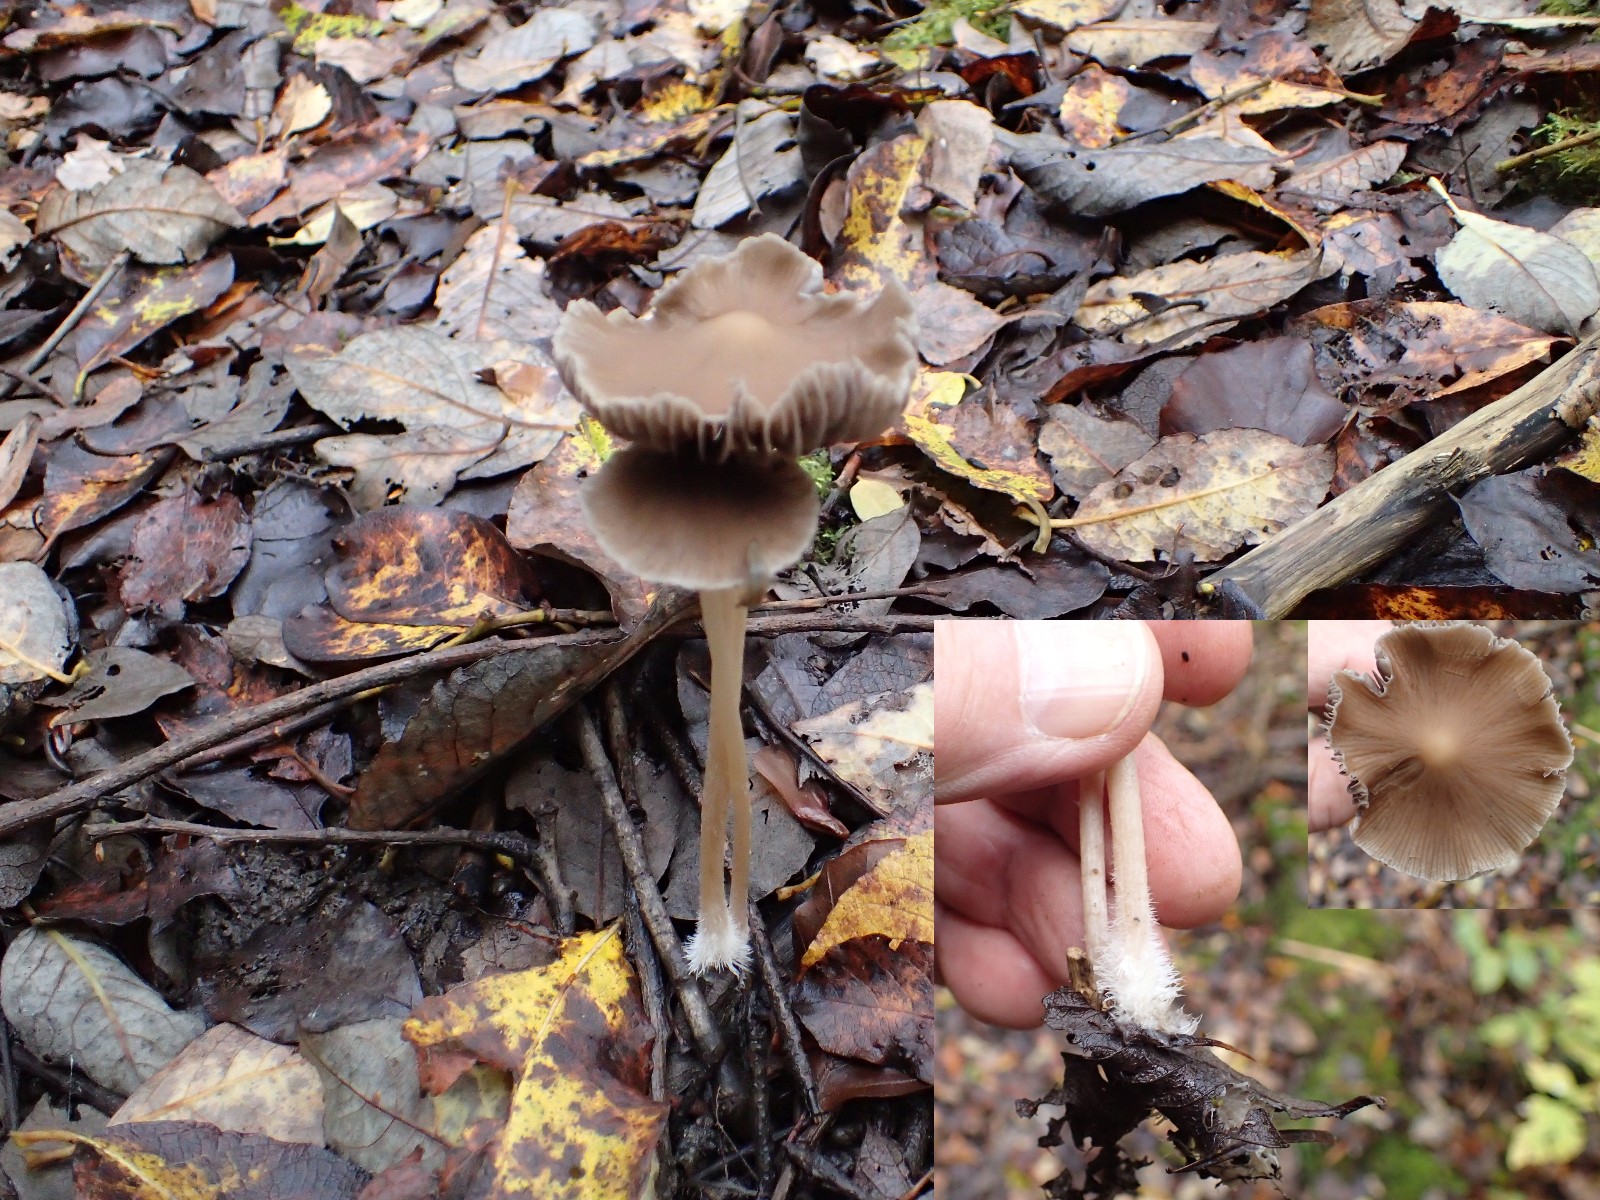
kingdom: Fungi
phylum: Basidiomycota
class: Agaricomycetes
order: Agaricales
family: Psathyrellaceae
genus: Psathyrella
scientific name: Psathyrella
